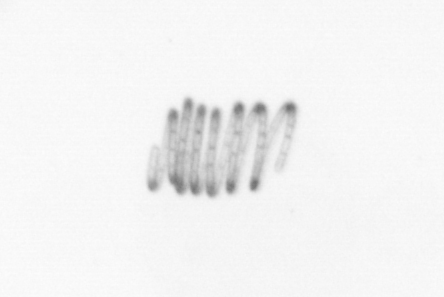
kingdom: Chromista
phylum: Ochrophyta
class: Bacillariophyceae
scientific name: Bacillariophyceae
